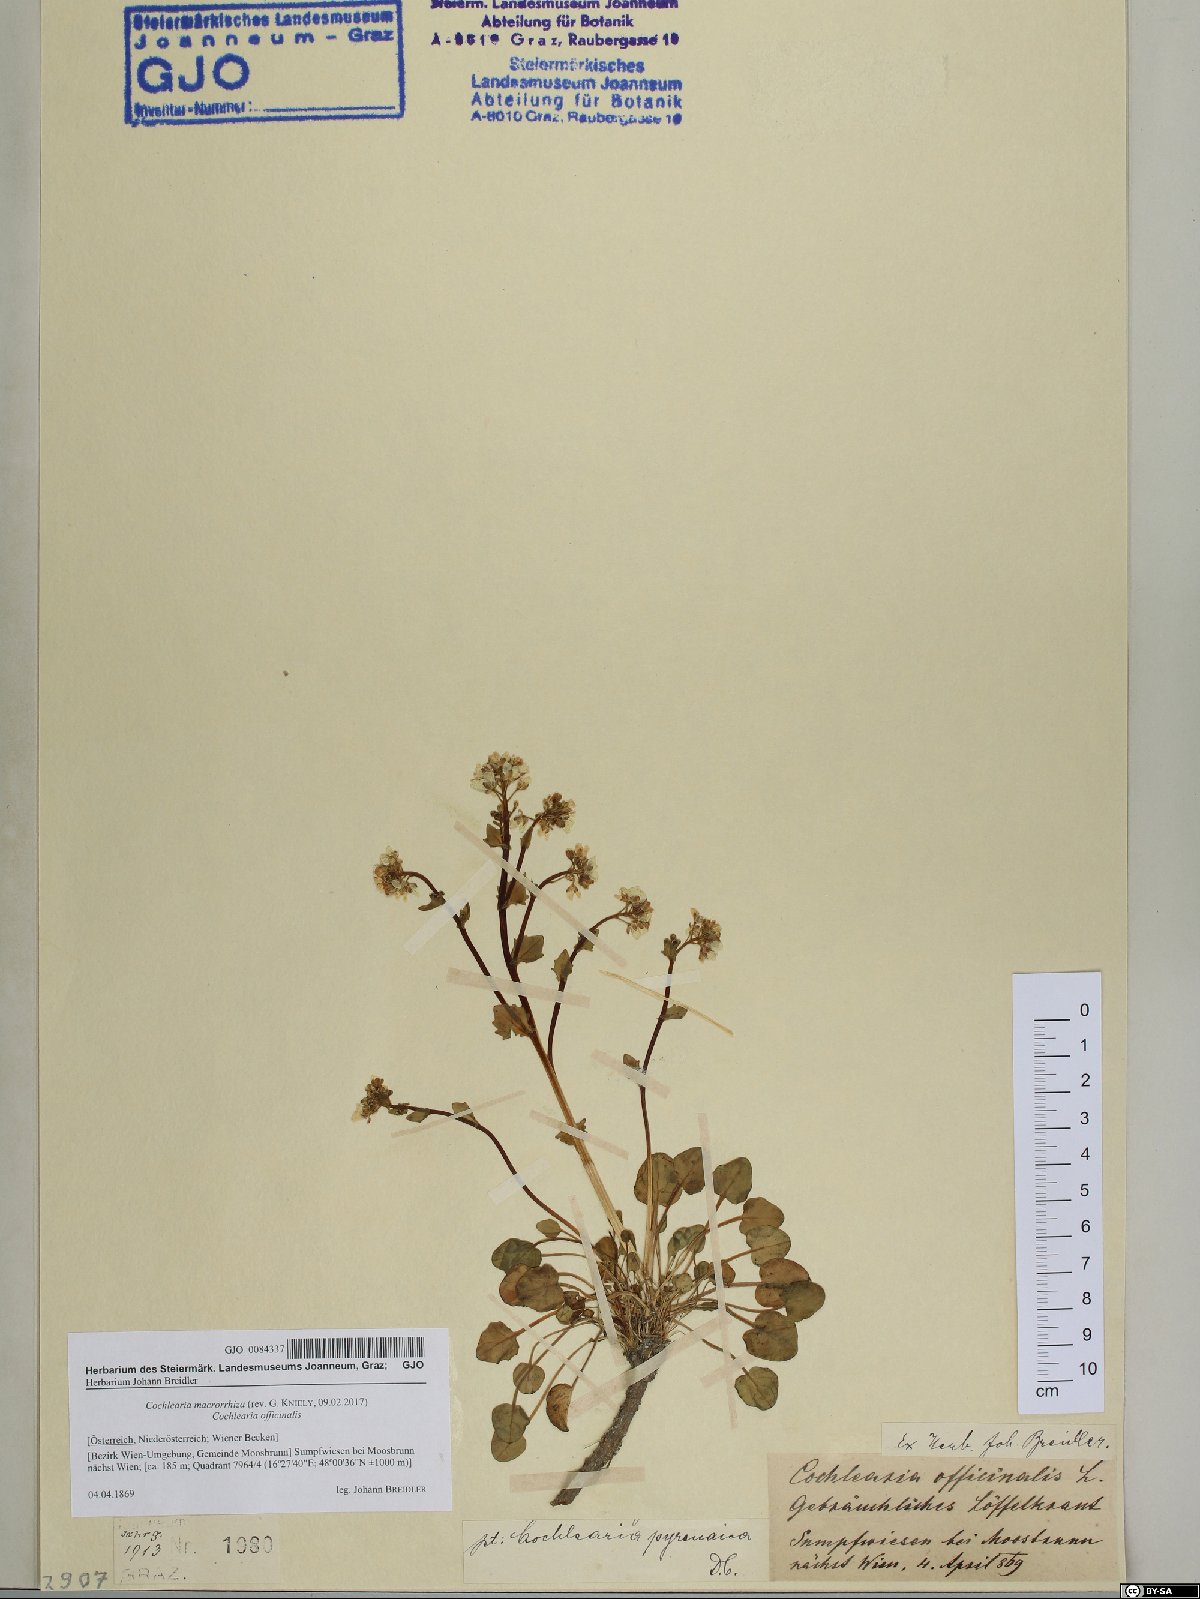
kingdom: Plantae
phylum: Tracheophyta
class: Magnoliopsida
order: Brassicales
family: Brassicaceae
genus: Cochlearia
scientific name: Cochlearia pyrenaica
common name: Upland scurvy-grass
